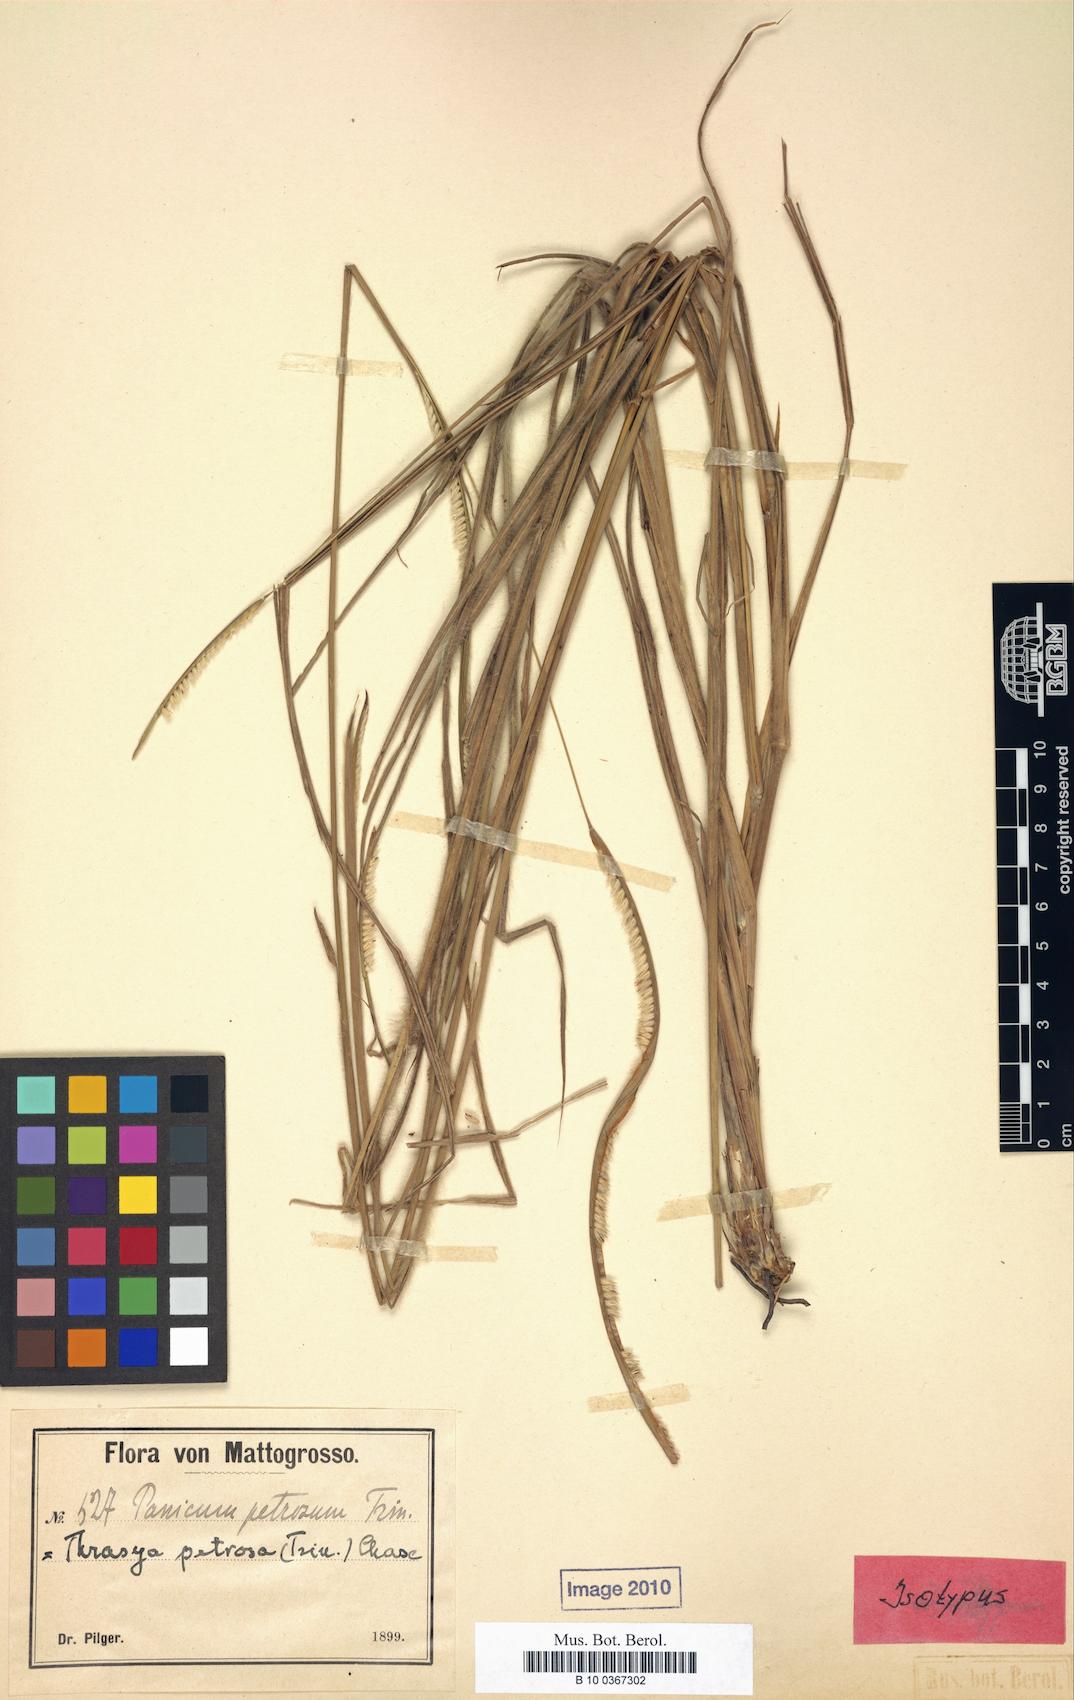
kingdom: Plantae
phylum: Tracheophyta
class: Liliopsida
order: Poales
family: Poaceae
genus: Paspalum
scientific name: Paspalum foliiforme
